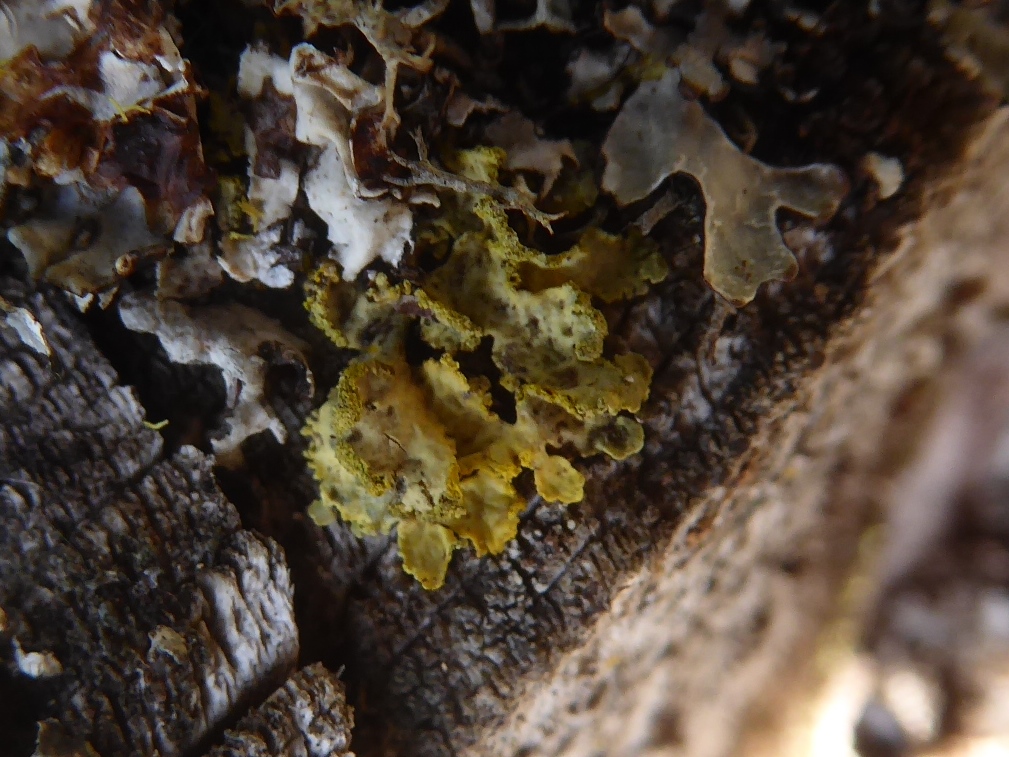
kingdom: Fungi
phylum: Ascomycota
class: Lecanoromycetes
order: Lecanorales
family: Parmeliaceae
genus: Vulpicida
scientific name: Vulpicida pinastri
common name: gul kruslav
